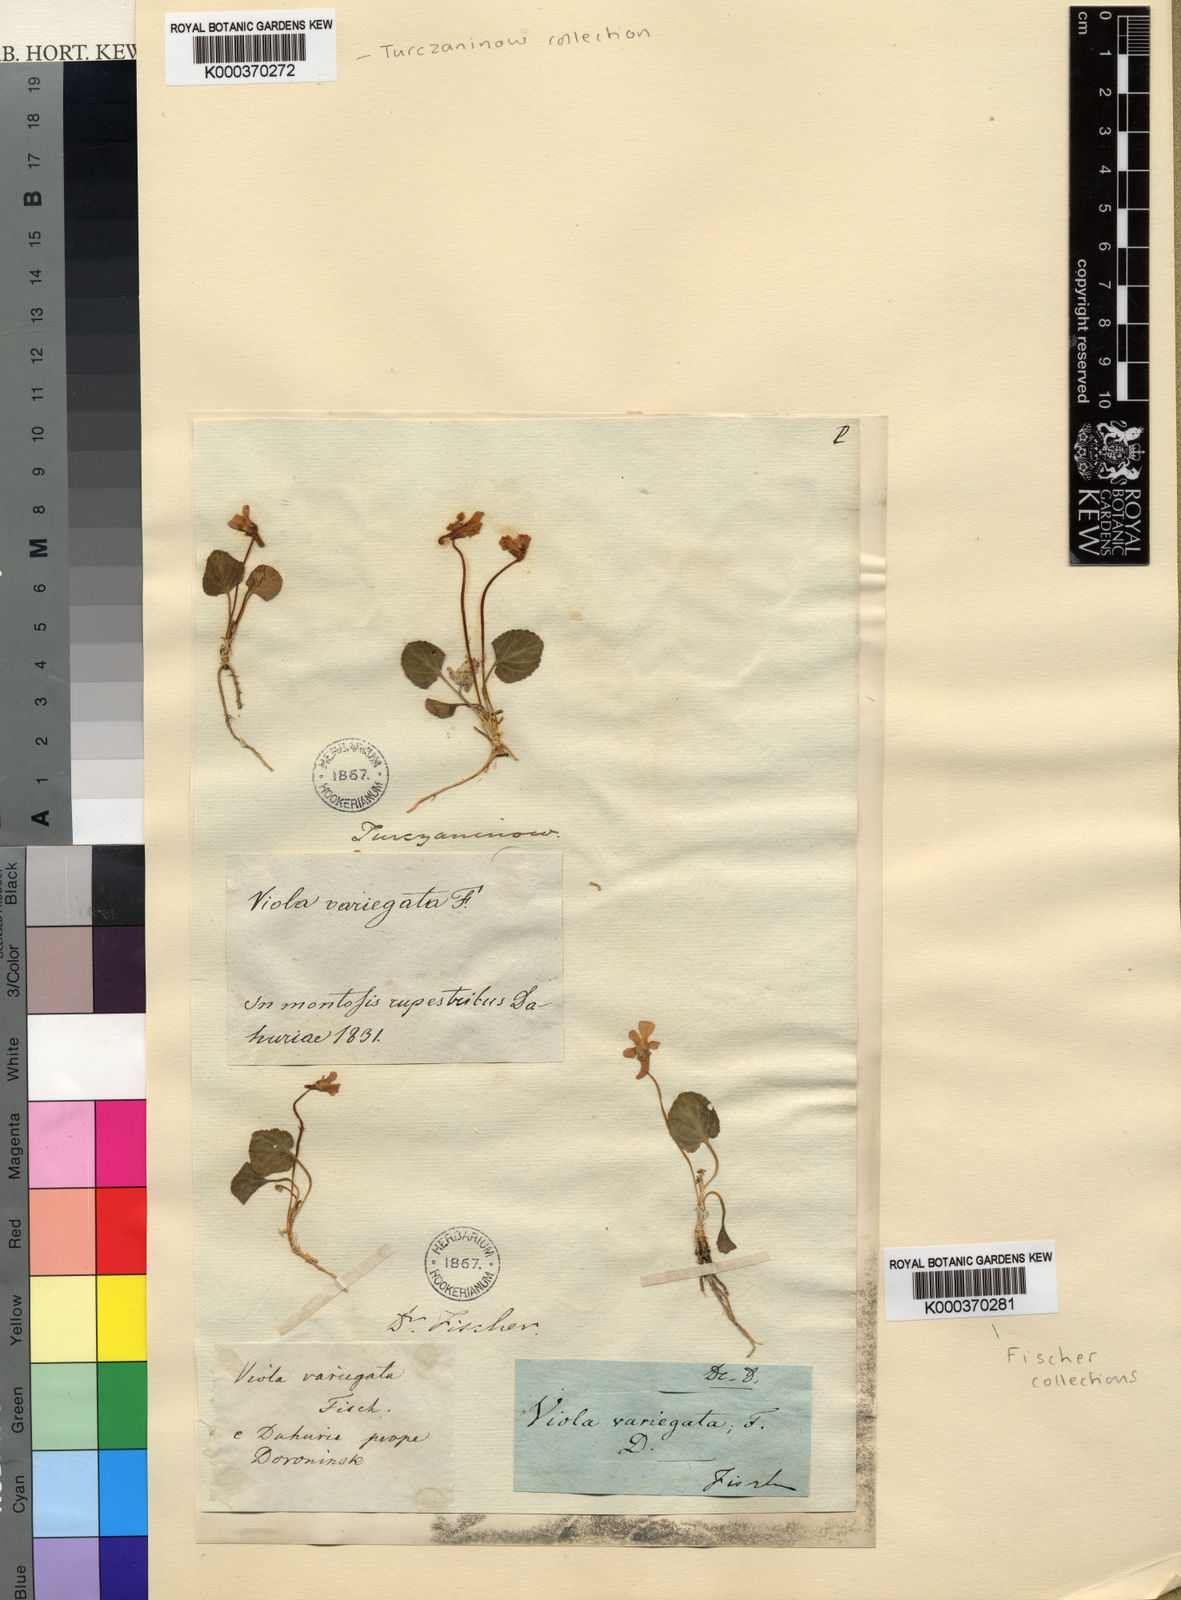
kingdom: Plantae
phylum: Tracheophyta
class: Magnoliopsida
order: Malpighiales
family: Violaceae
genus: Viola
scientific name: Viola variegata
